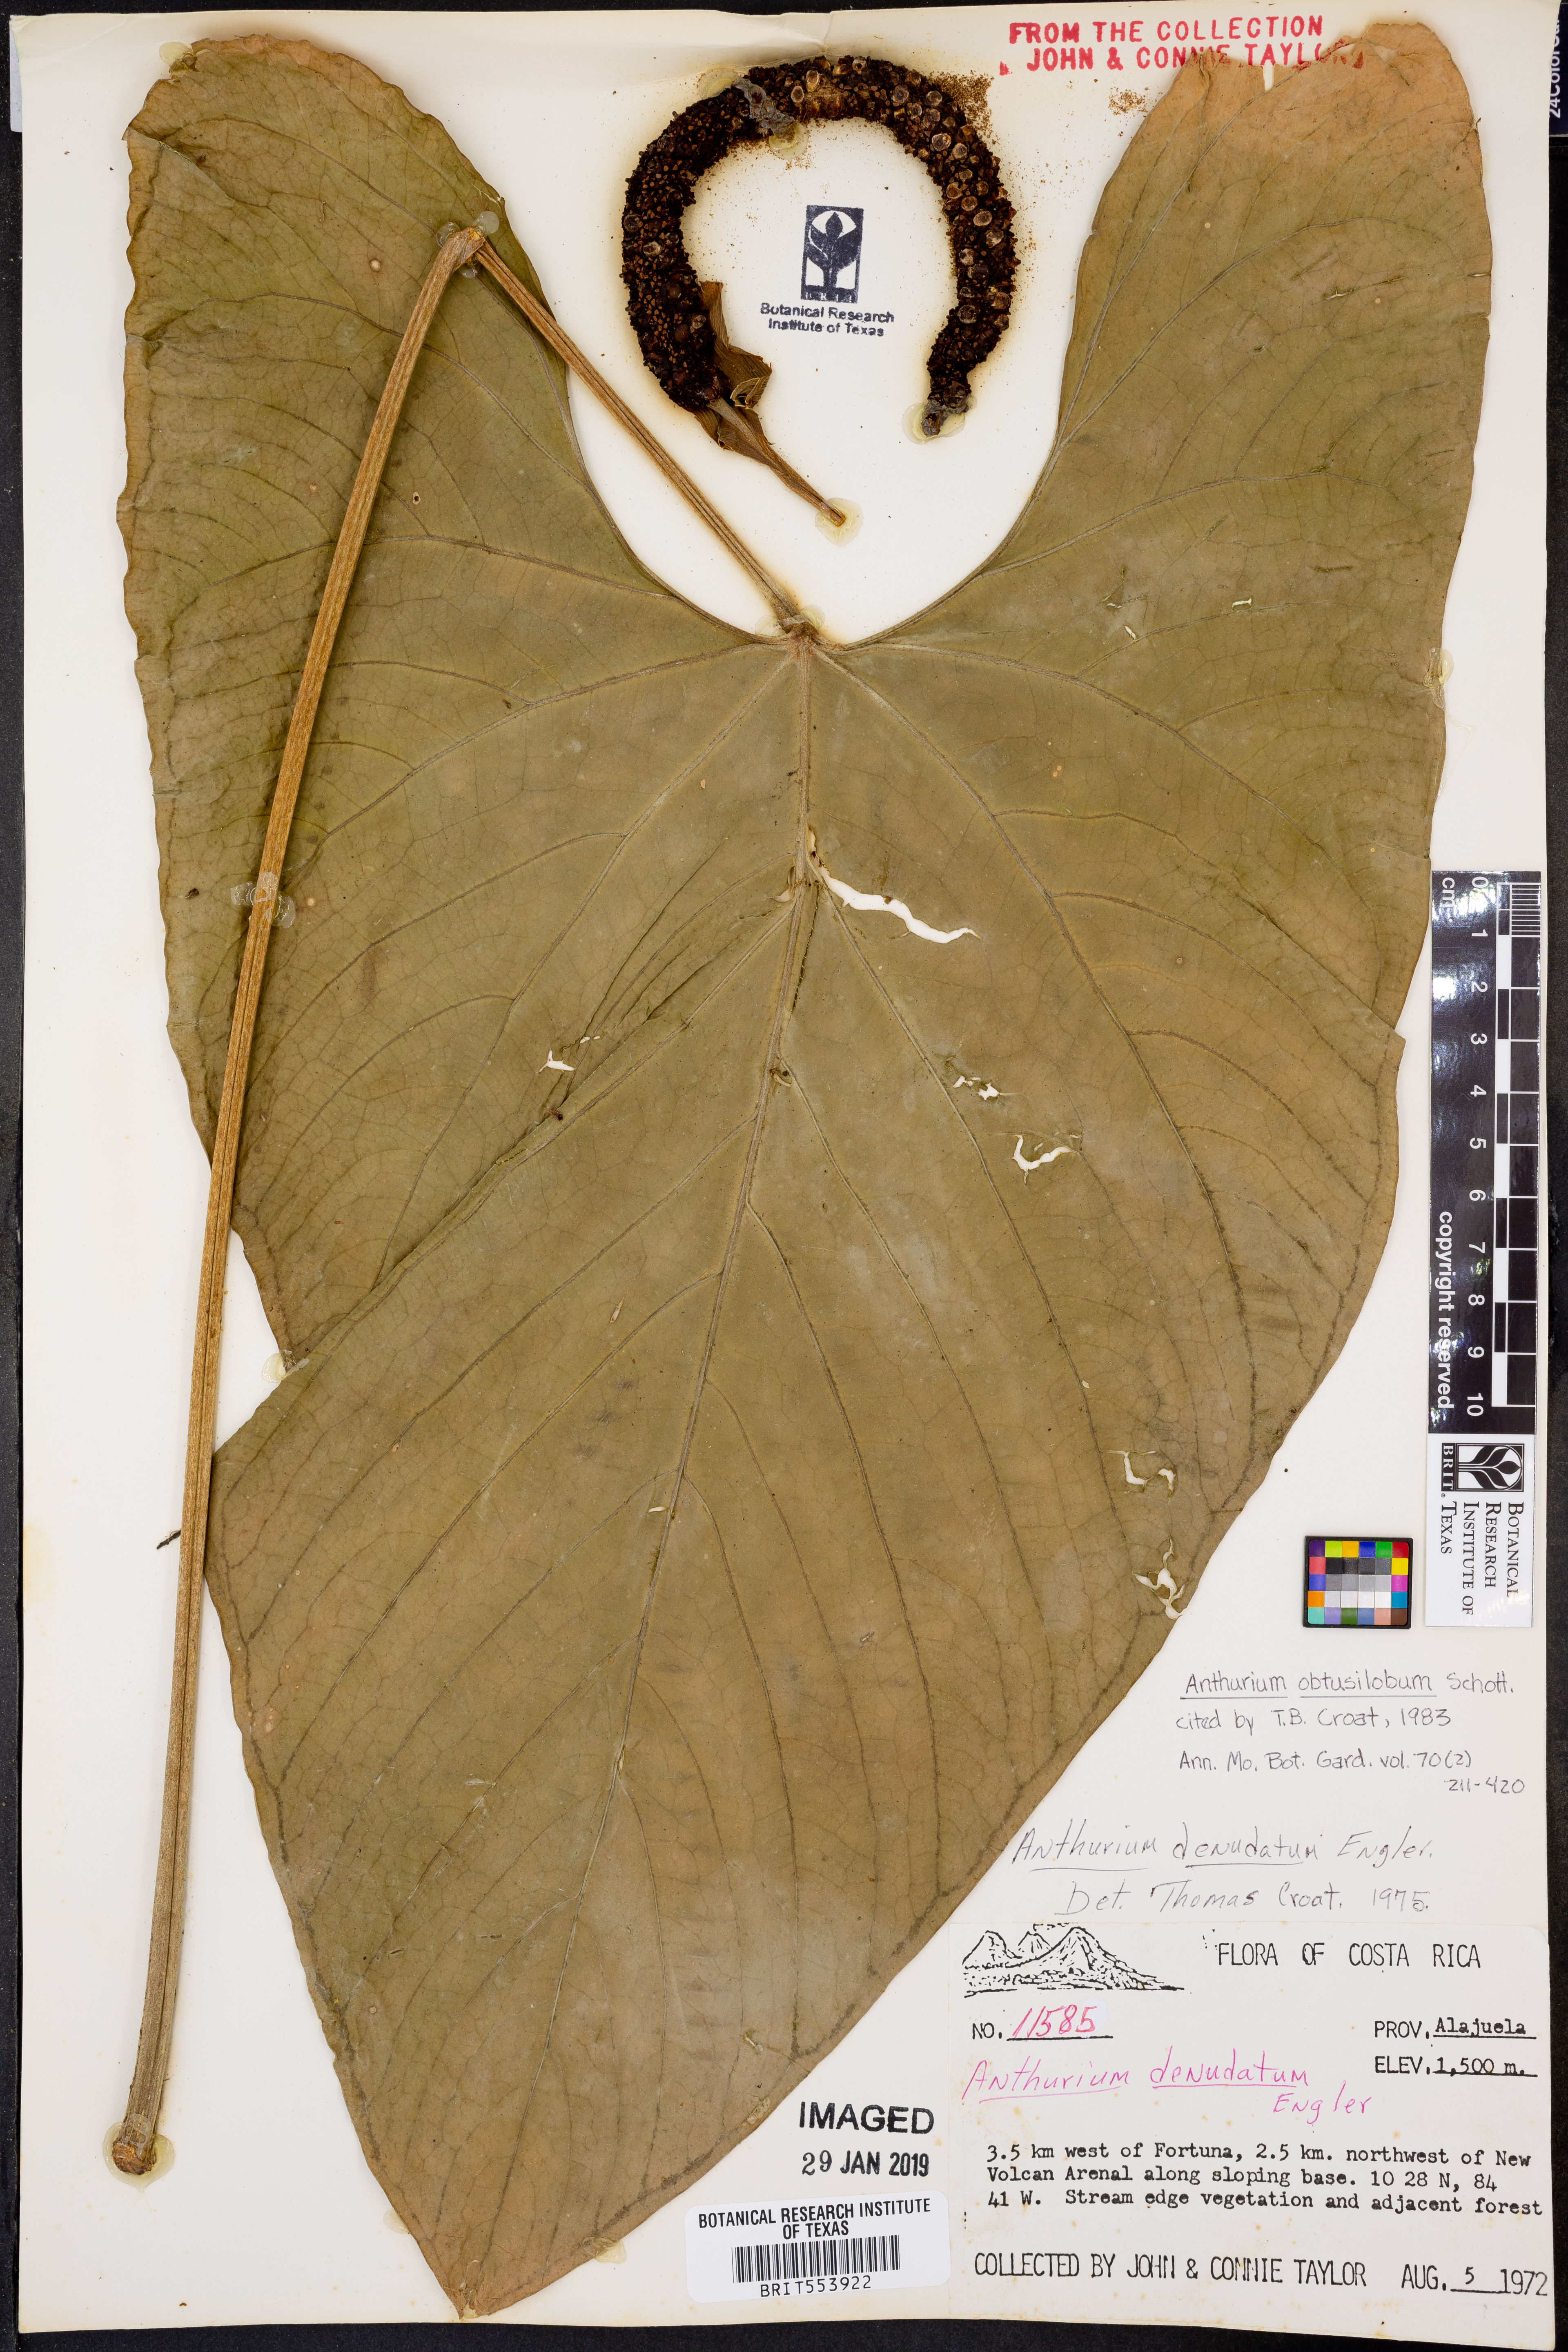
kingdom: Plantae
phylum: Tracheophyta
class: Liliopsida
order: Alismatales
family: Araceae
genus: Anthurium
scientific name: Anthurium obtusilobum
